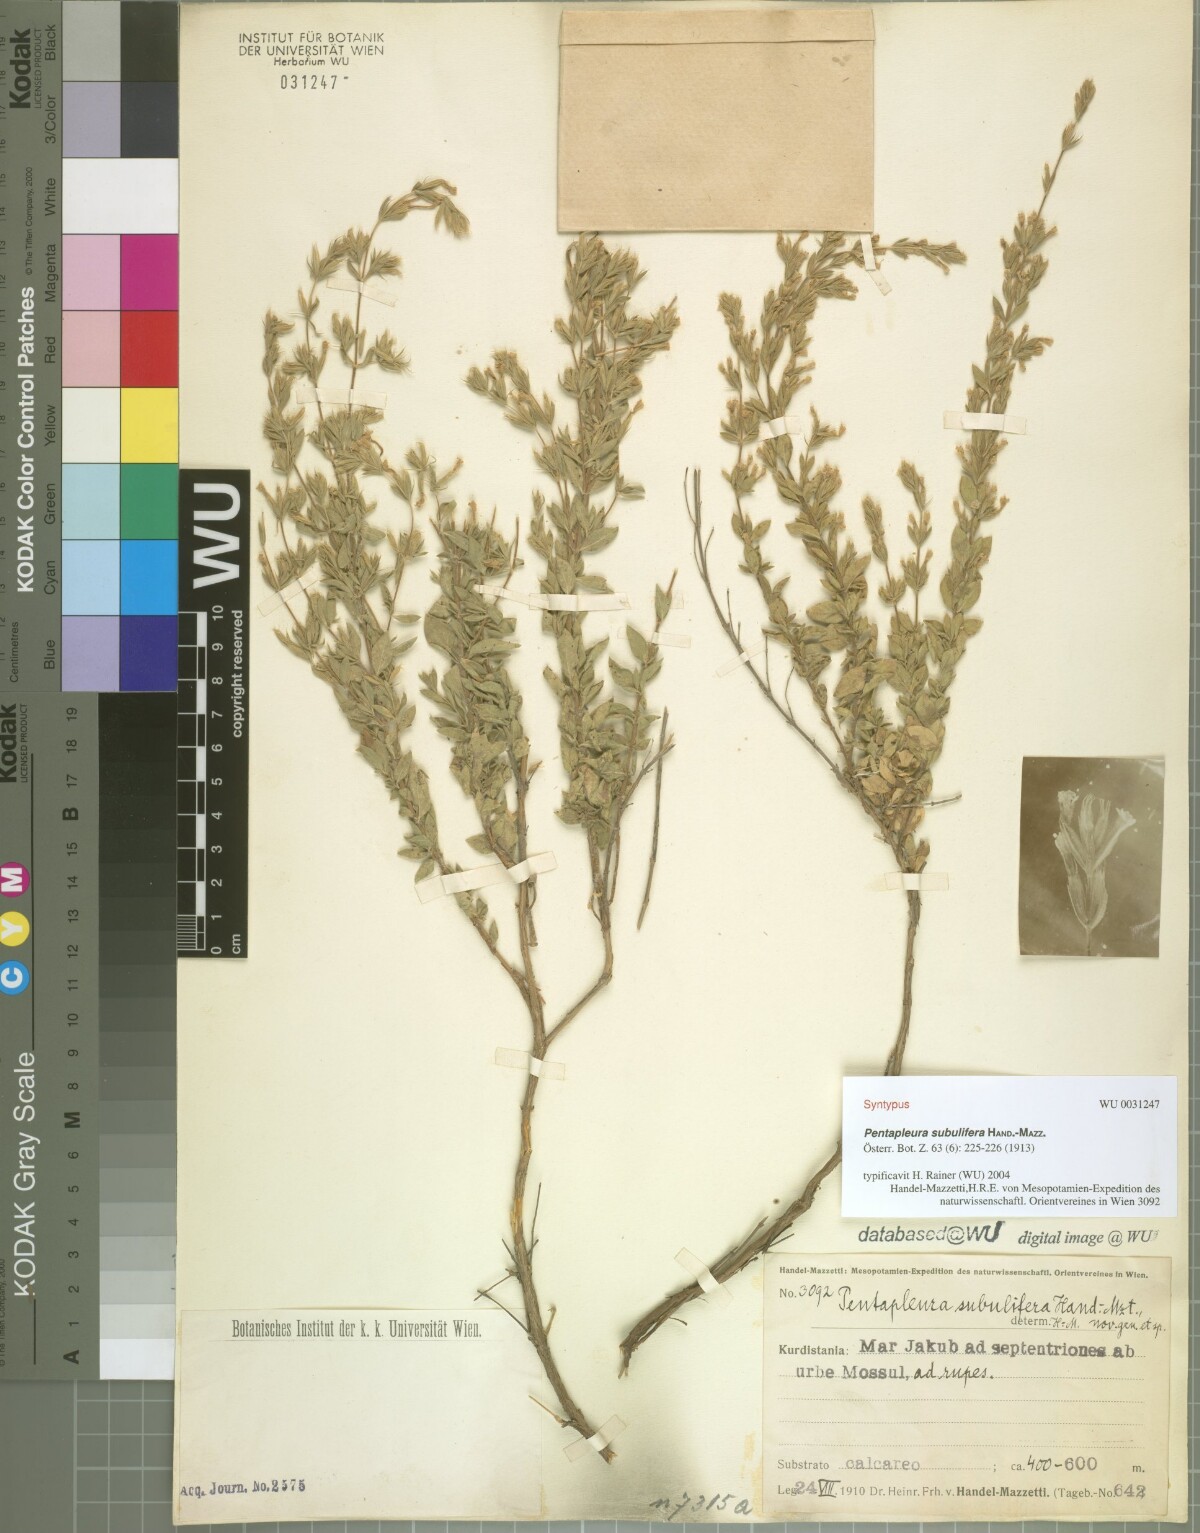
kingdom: Plantae
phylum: Tracheophyta
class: Magnoliopsida
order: Lamiales
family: Lamiaceae
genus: Pentapleura
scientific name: Pentapleura subulifera
